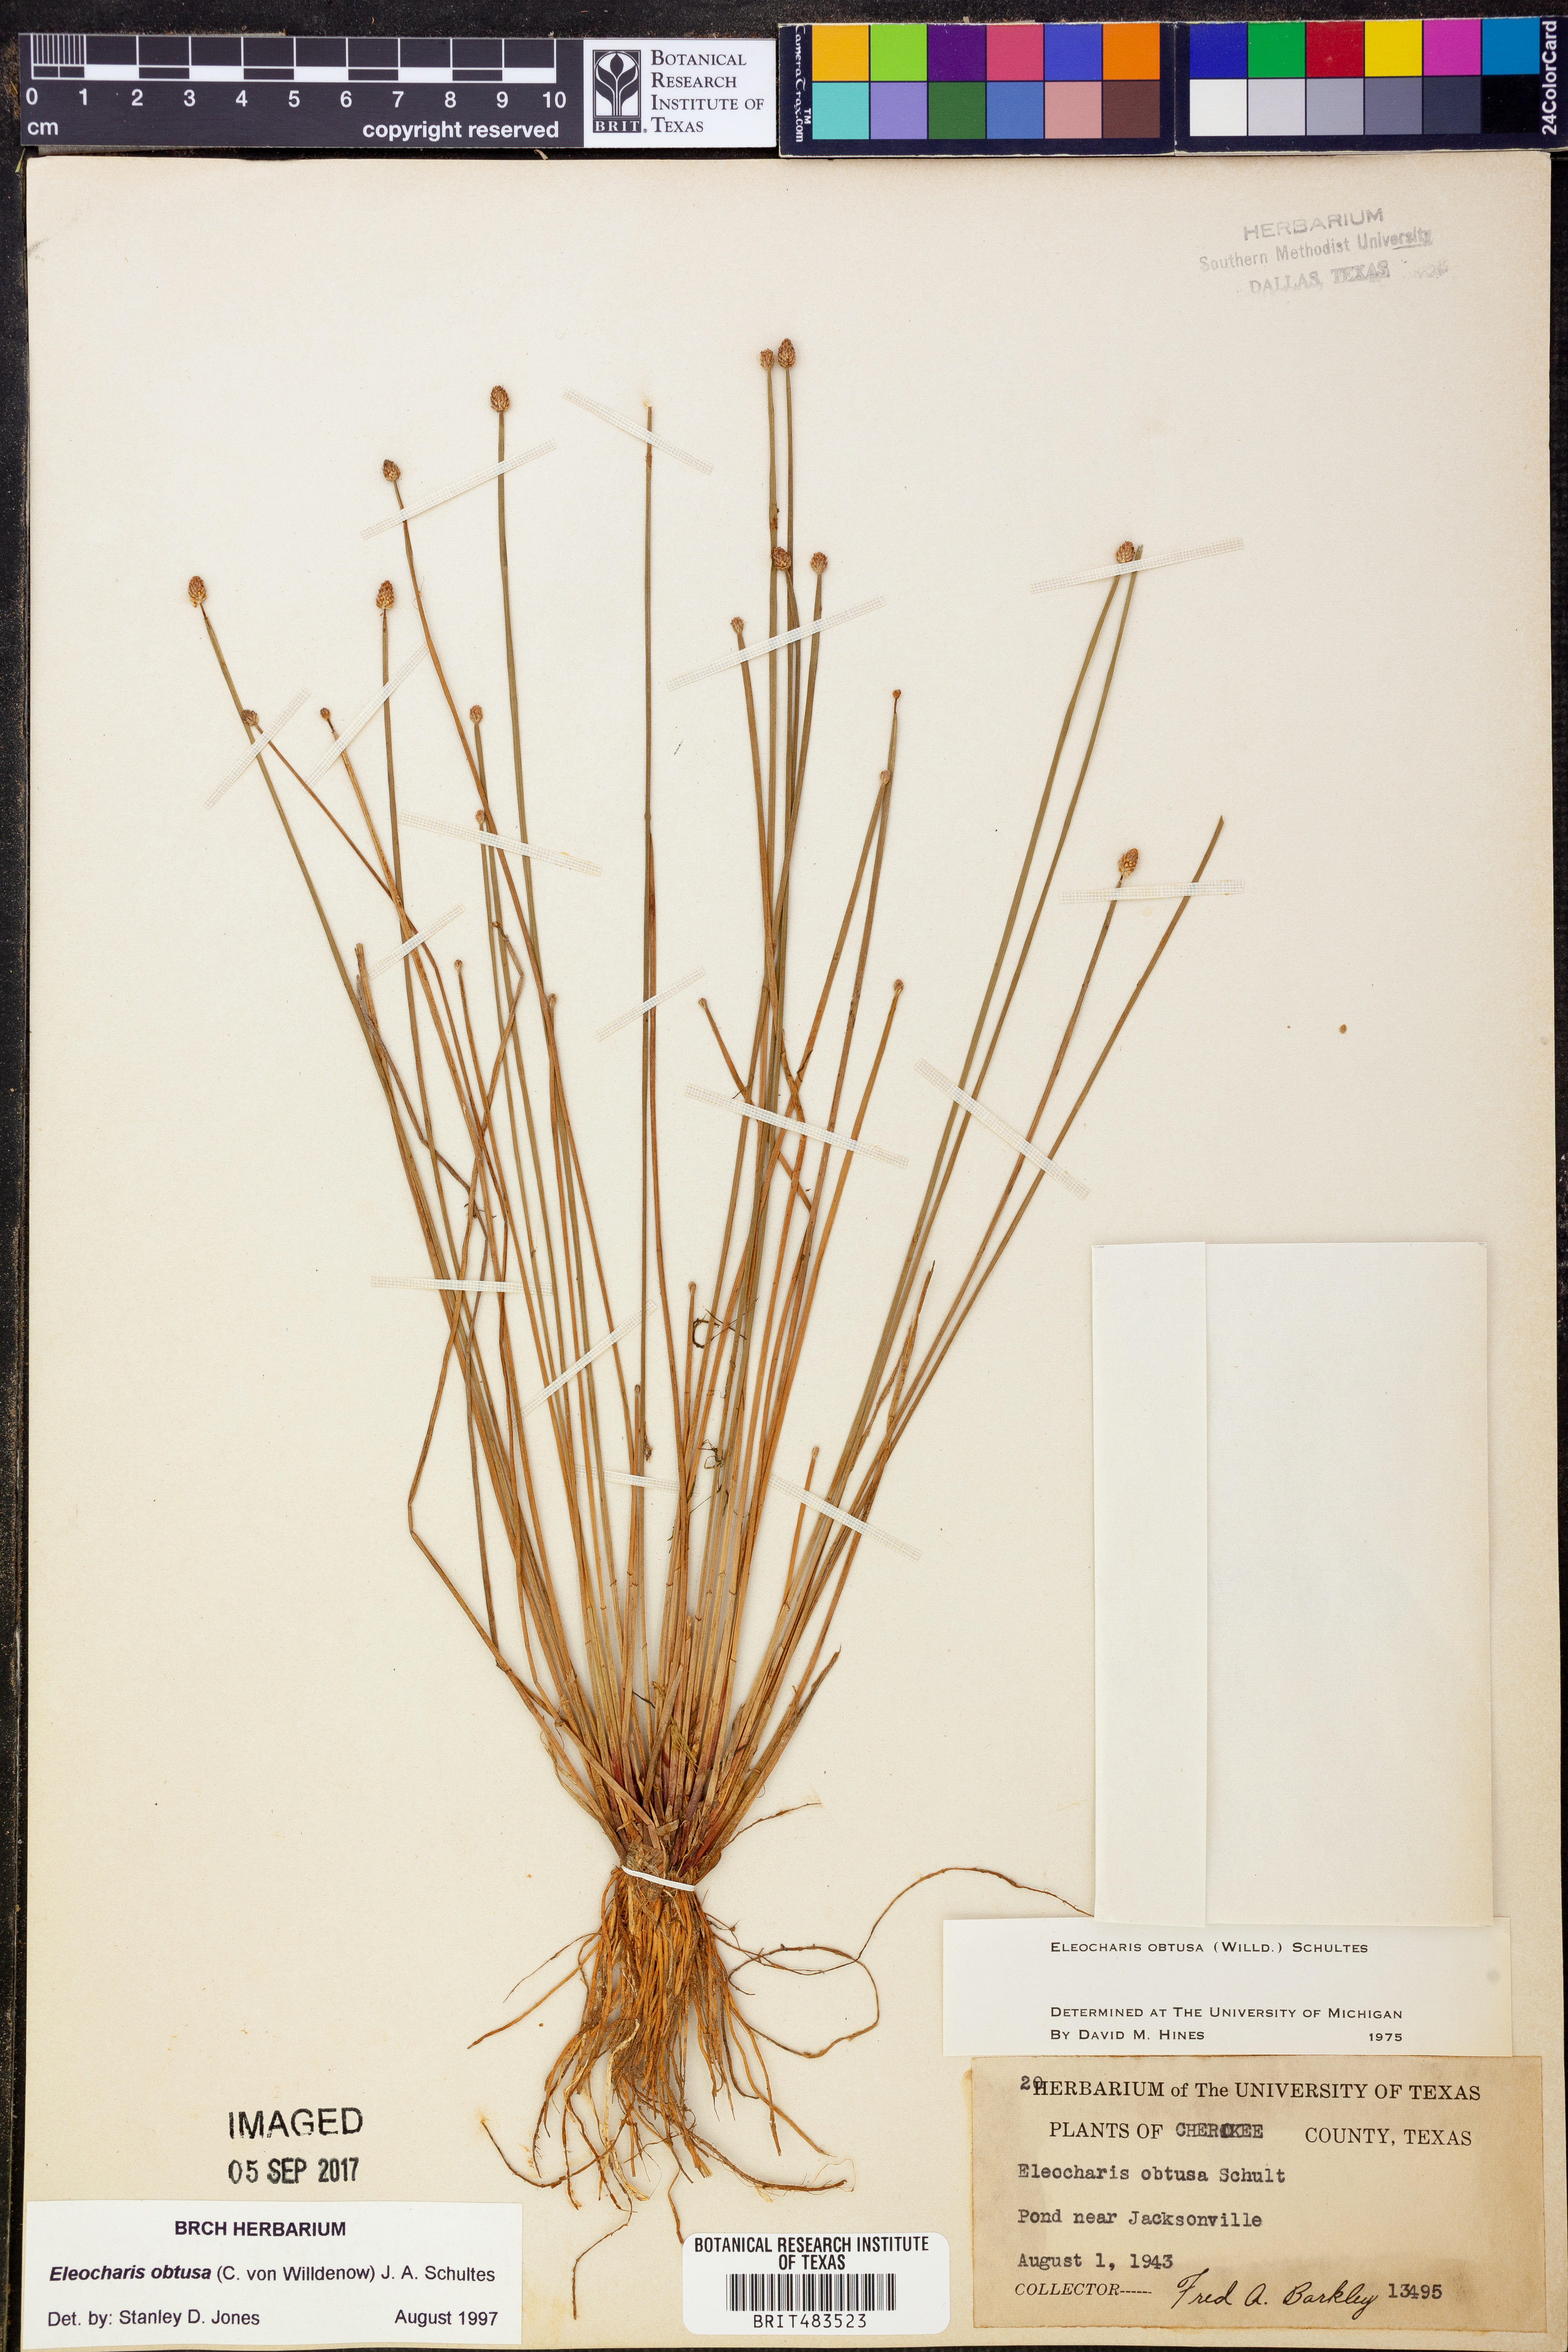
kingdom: Plantae
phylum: Tracheophyta
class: Liliopsida
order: Poales
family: Cyperaceae
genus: Eleocharis
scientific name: Eleocharis obtusa
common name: Blunt spikerush
